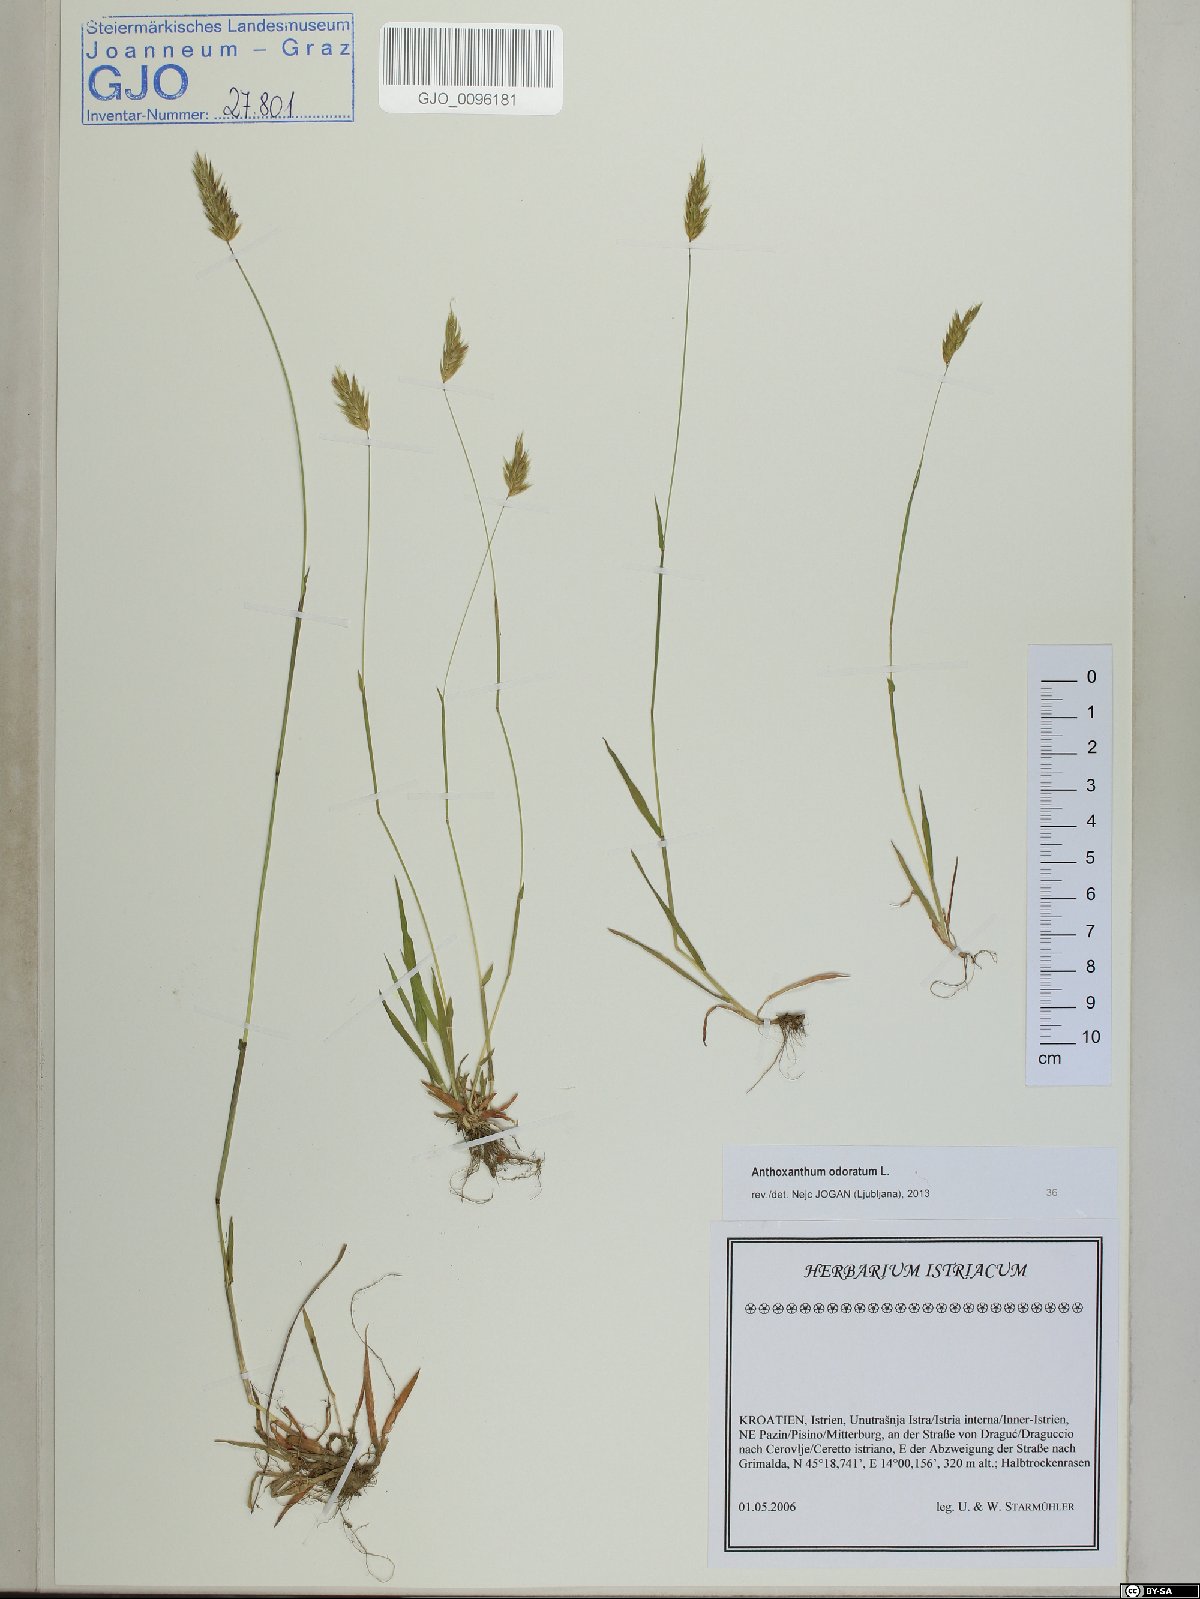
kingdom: Plantae
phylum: Tracheophyta
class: Liliopsida
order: Poales
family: Poaceae
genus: Anthoxanthum
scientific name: Anthoxanthum odoratum
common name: Sweet vernalgrass
